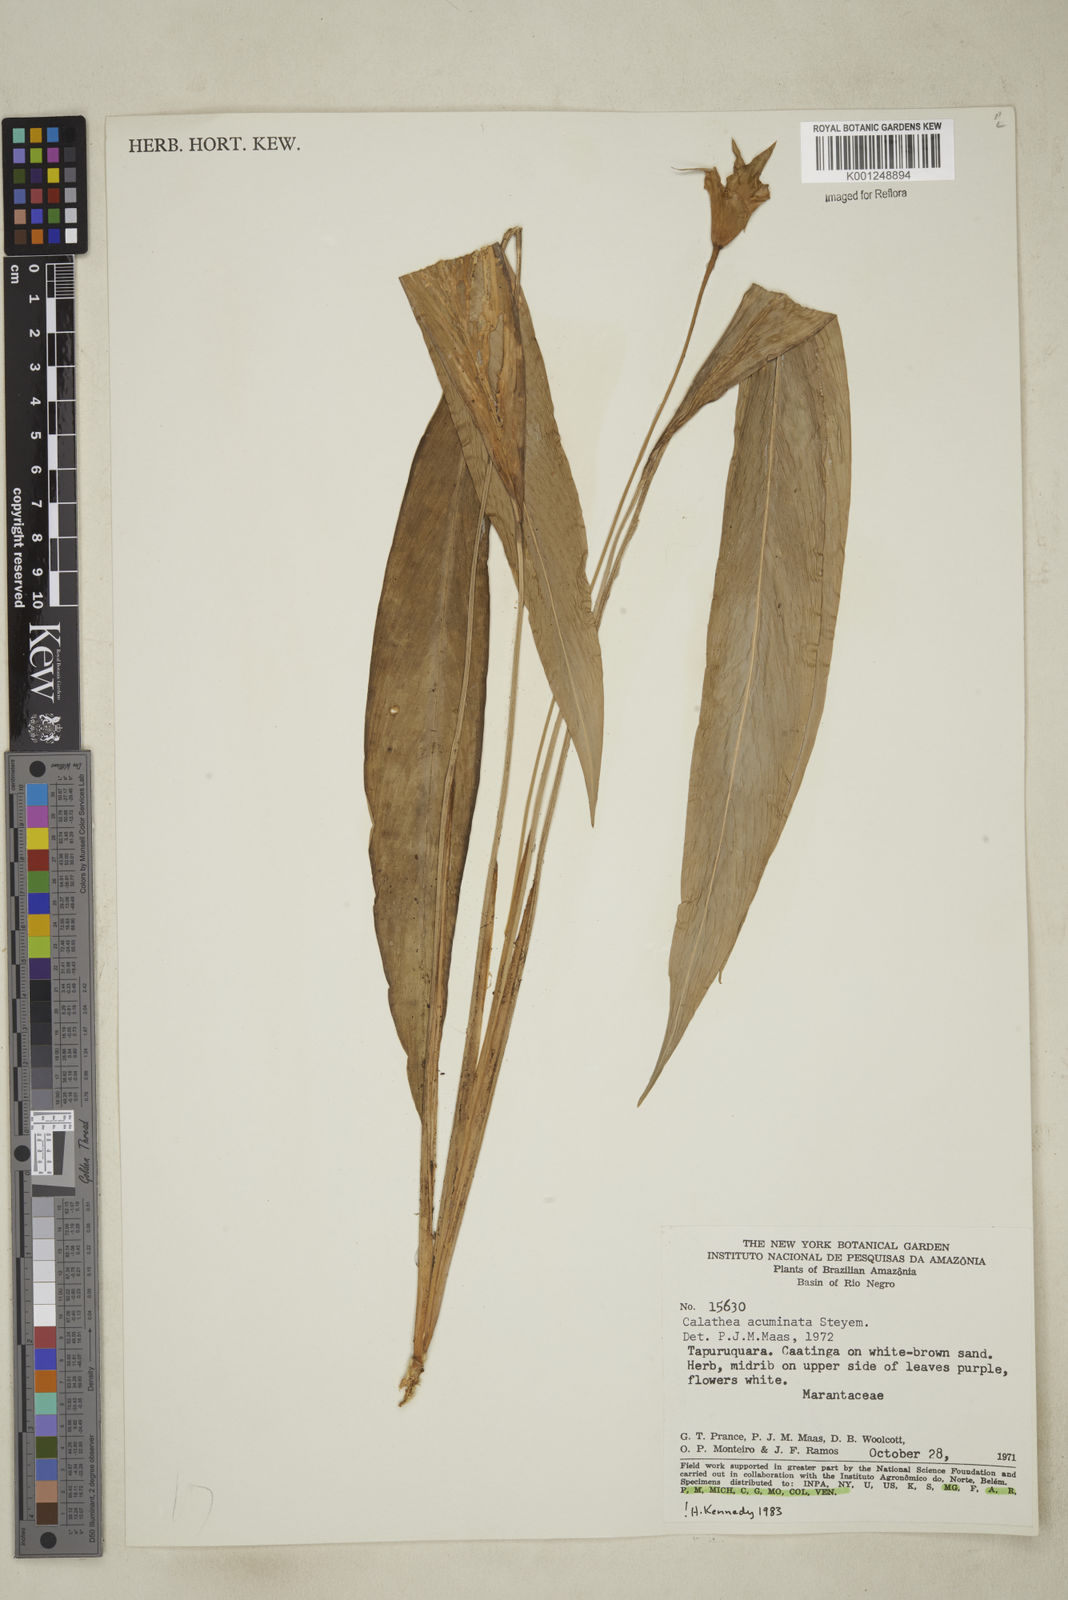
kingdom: Plantae
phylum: Tracheophyta
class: Liliopsida
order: Zingiberales
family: Marantaceae
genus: Goeppertia
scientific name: Goeppertia acuminata
